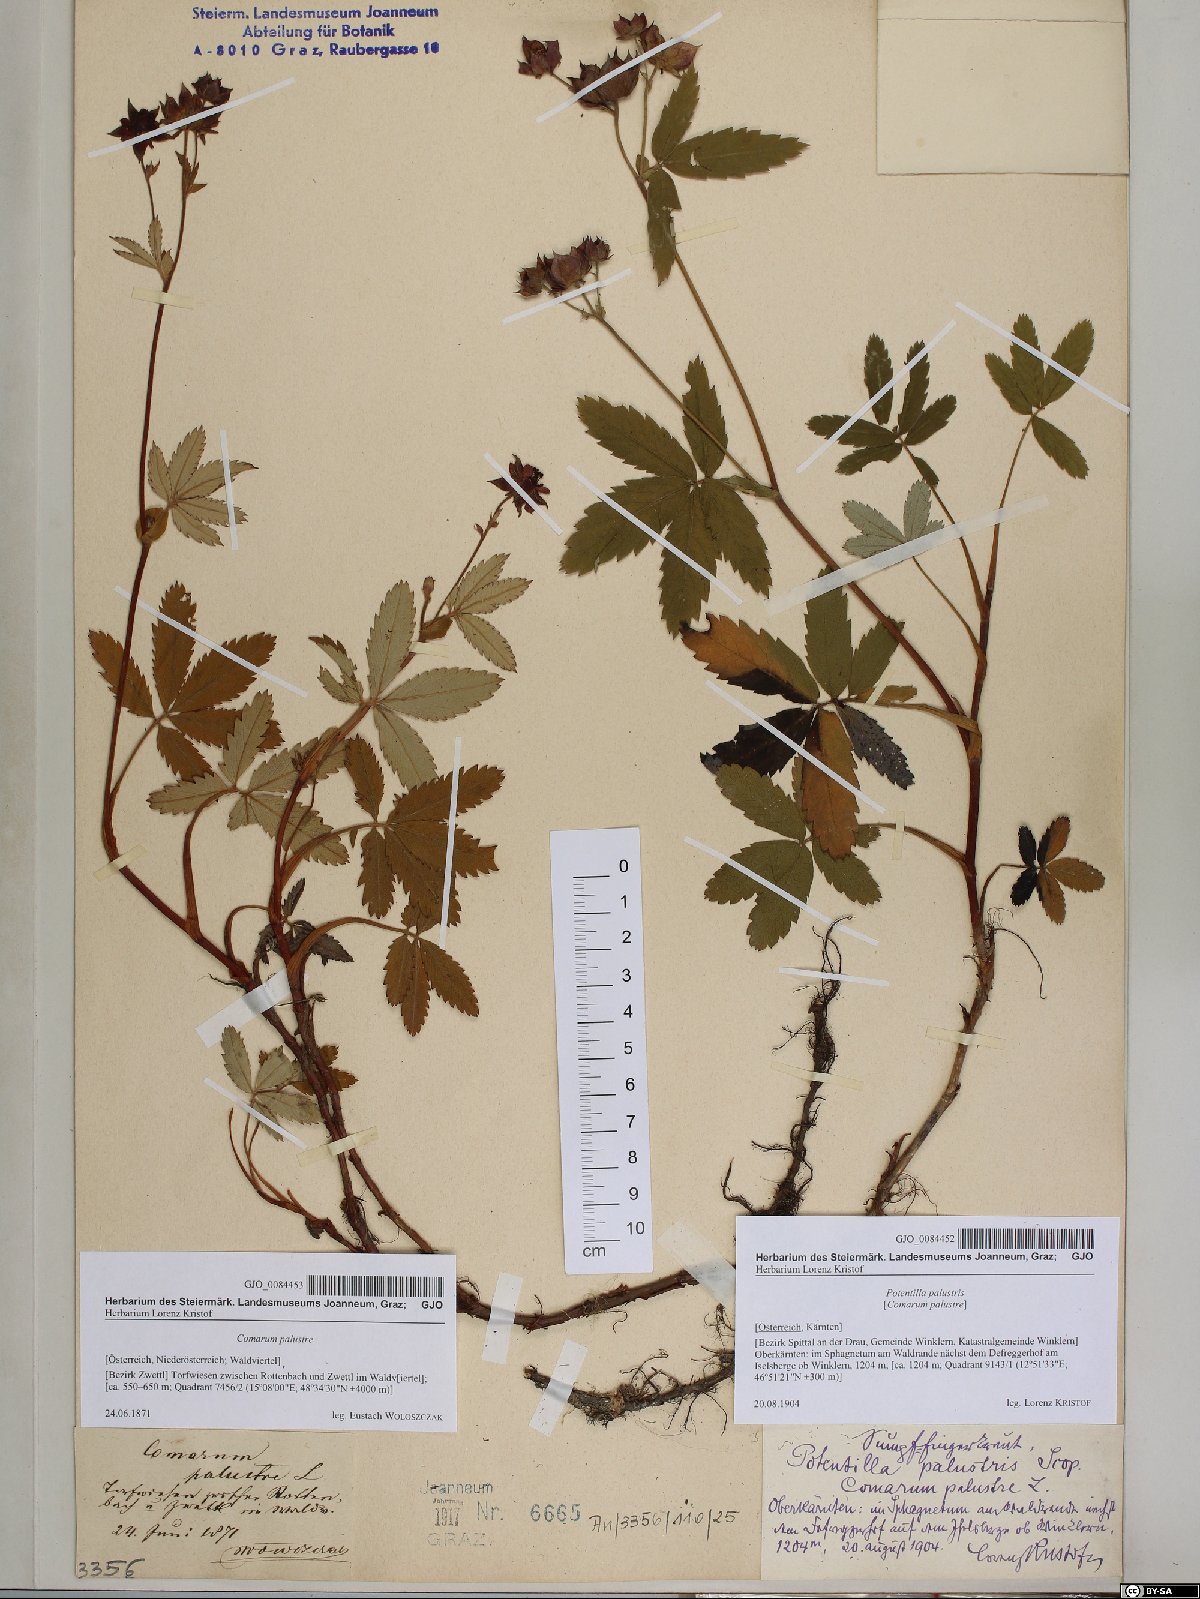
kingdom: Plantae
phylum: Tracheophyta
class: Magnoliopsida
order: Rosales
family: Rosaceae
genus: Comarum
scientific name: Comarum palustre
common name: Marsh cinquefoil
